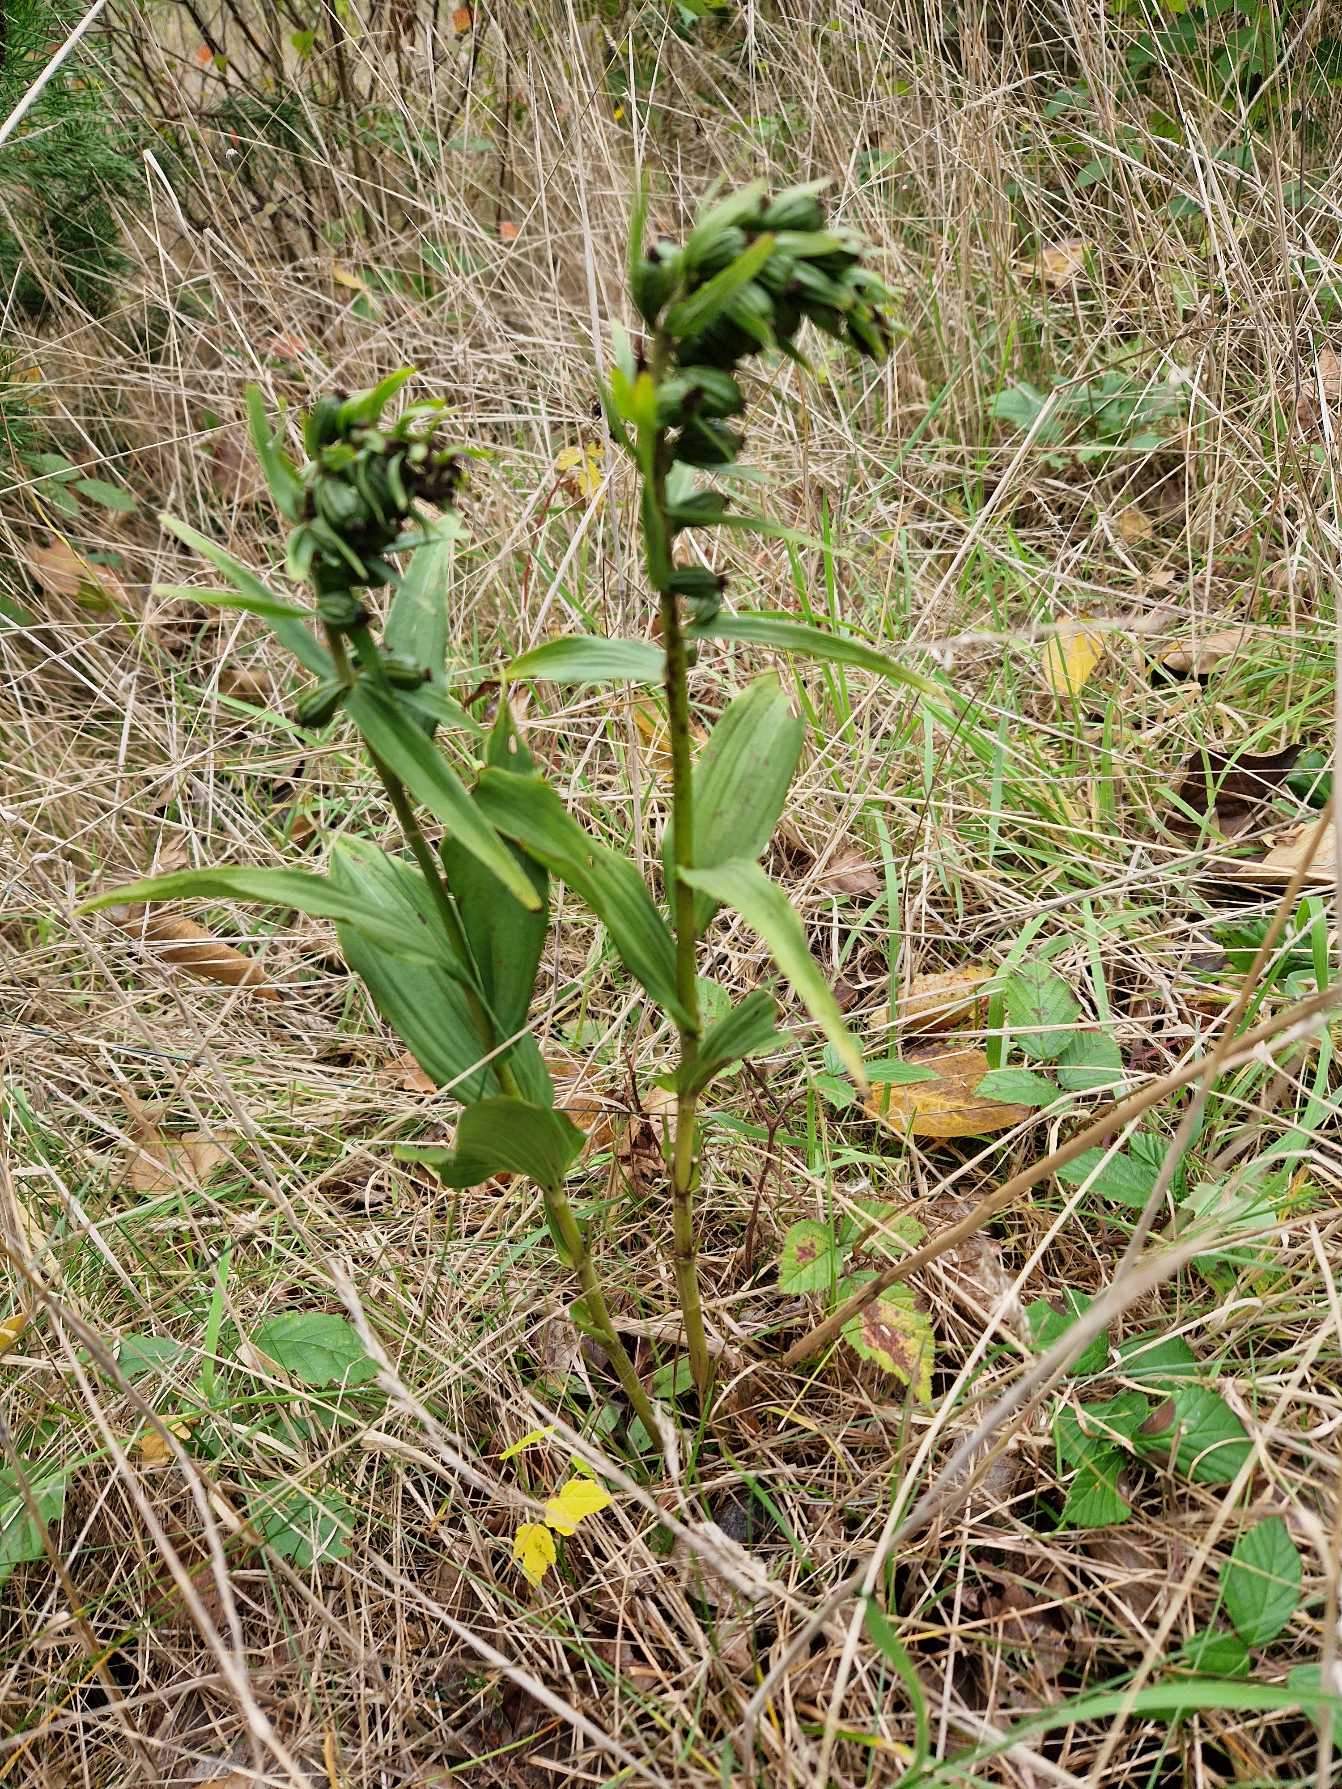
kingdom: Plantae
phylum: Tracheophyta
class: Liliopsida
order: Asparagales
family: Orchidaceae
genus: Epipactis
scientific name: Epipactis helleborine
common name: Skov-hullæbe
